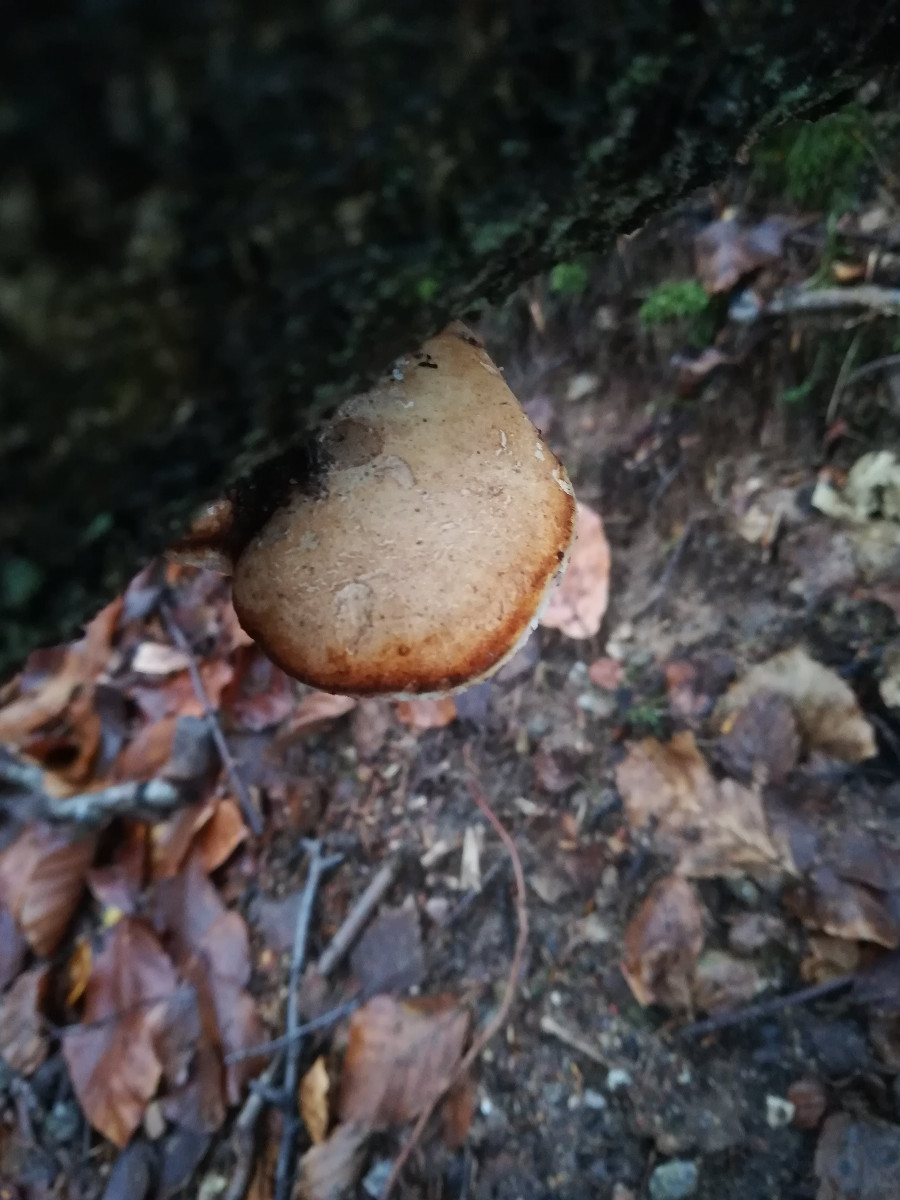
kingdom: Fungi
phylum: Basidiomycota
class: Agaricomycetes
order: Polyporales
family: Fomitopsidaceae
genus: Fomitopsis
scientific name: Fomitopsis betulina
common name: birkeporesvamp
